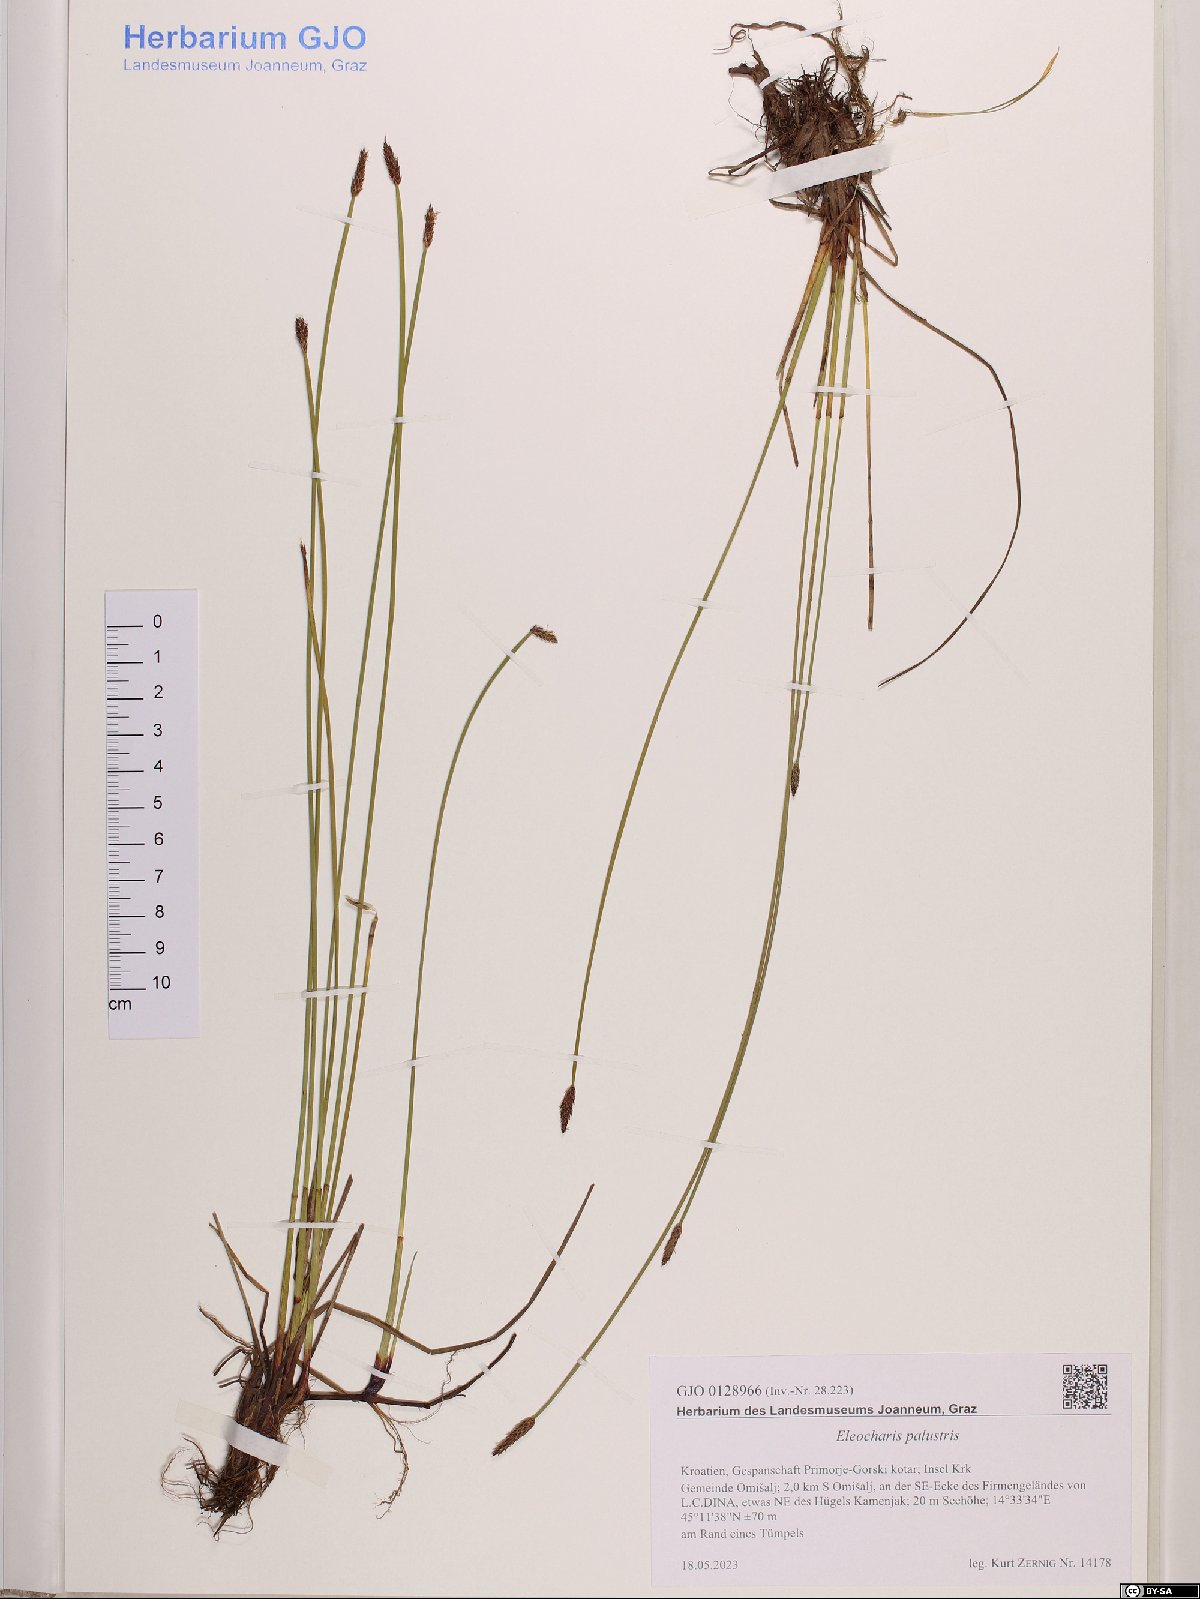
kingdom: Plantae
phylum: Tracheophyta
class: Liliopsida
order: Poales
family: Cyperaceae
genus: Eleocharis
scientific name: Eleocharis palustris
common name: Common spike-rush
